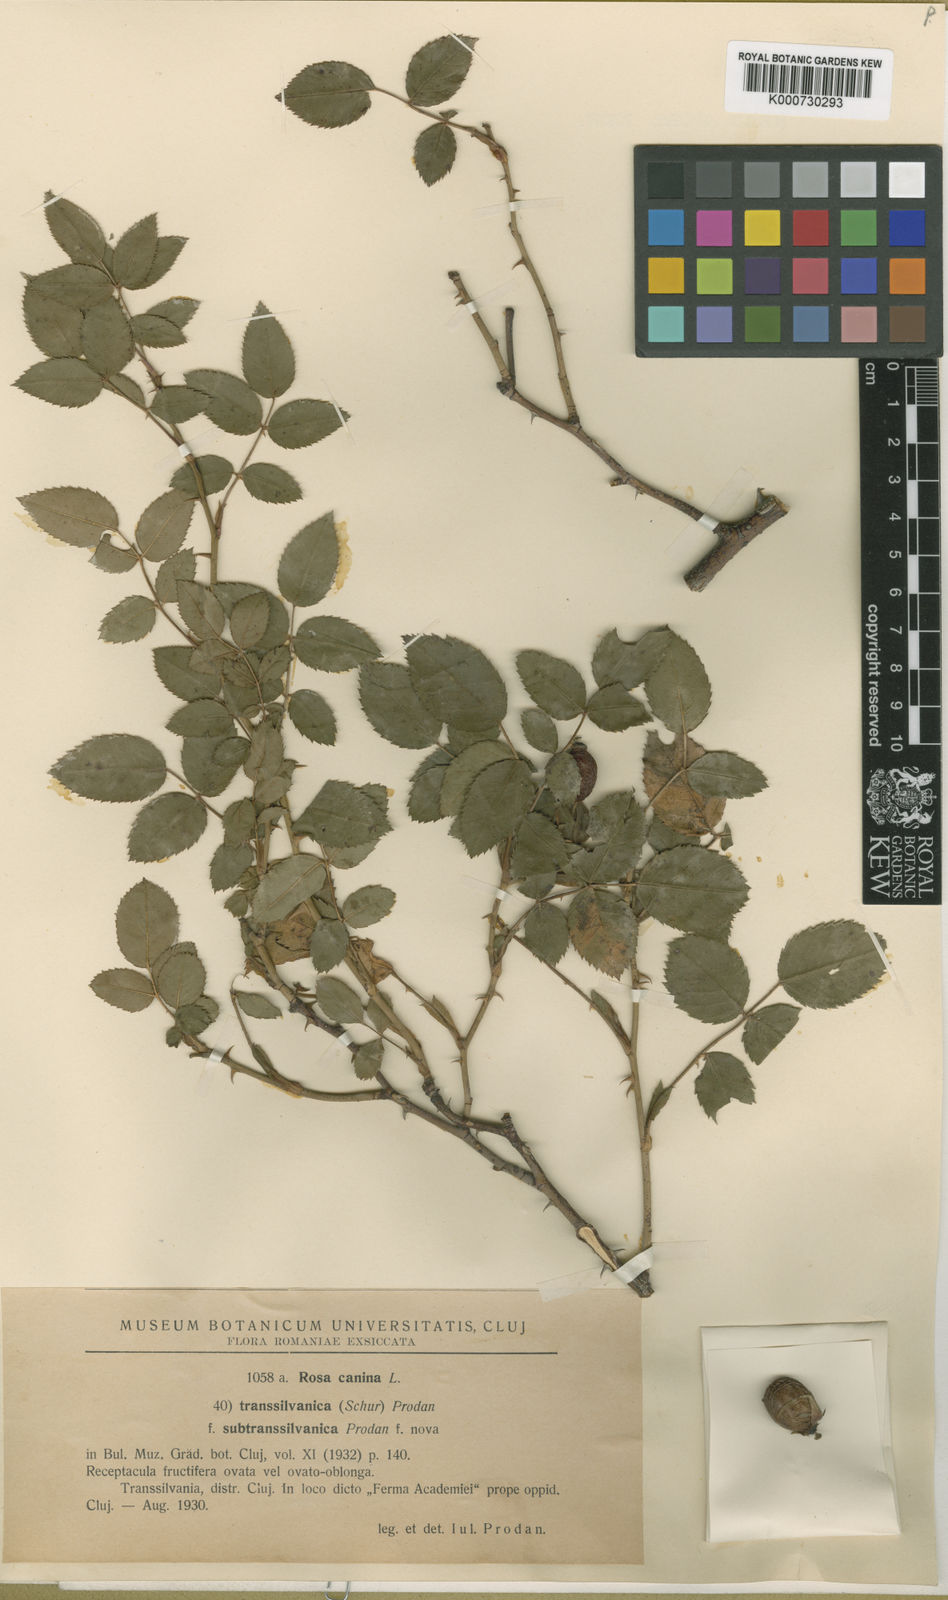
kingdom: Plantae
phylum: Tracheophyta
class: Magnoliopsida
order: Rosales
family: Rosaceae
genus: Rosa
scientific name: Rosa canina
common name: Dog rose
